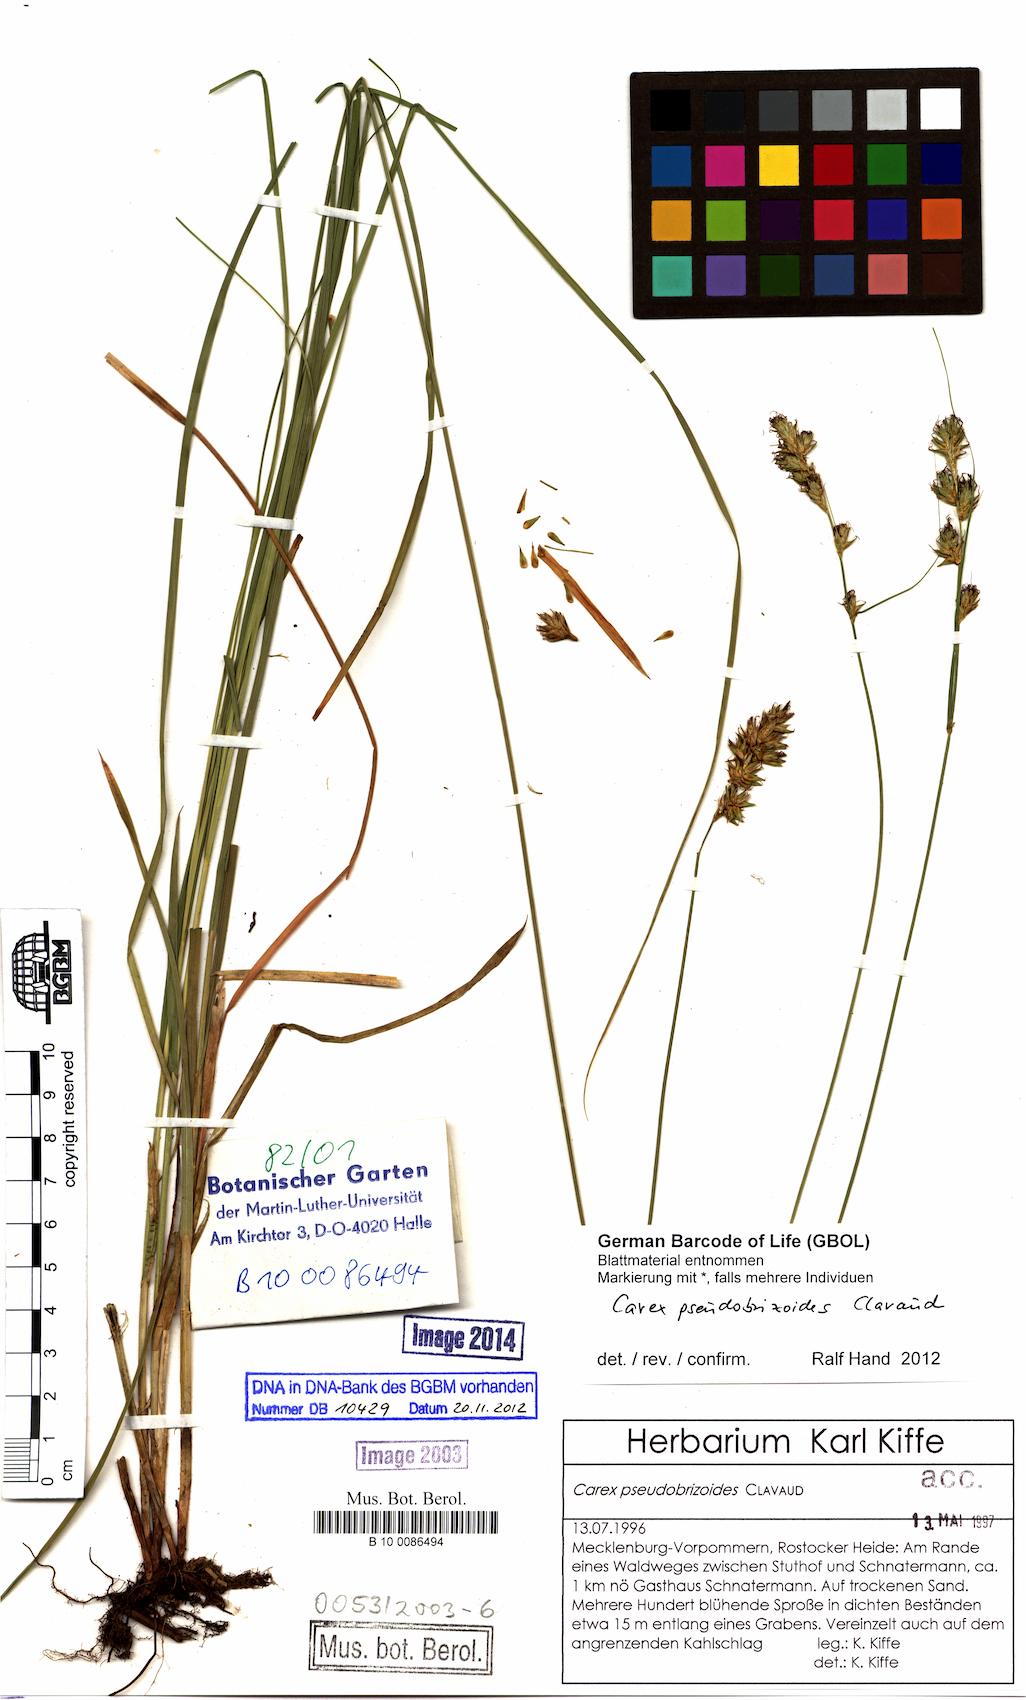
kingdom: Plantae
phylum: Tracheophyta
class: Liliopsida
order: Poales
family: Cyperaceae
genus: Carex
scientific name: Carex pseudobrizoides
